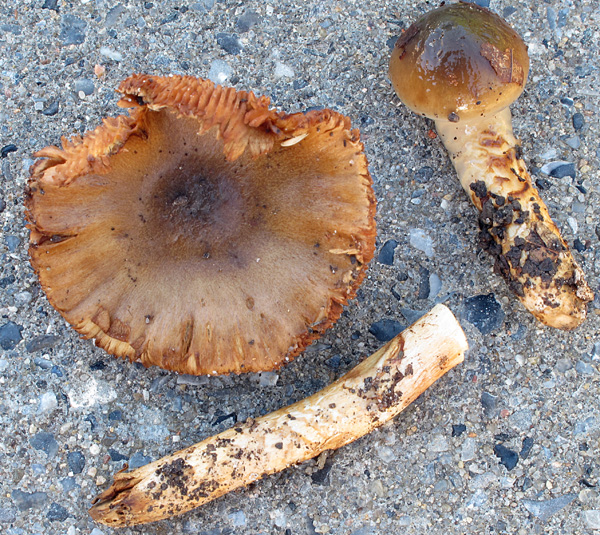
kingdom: Fungi
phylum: Basidiomycota
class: Agaricomycetes
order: Agaricales
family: Cortinariaceae
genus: Cortinarius
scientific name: Cortinarius trivialis
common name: brunslimet slørhat
